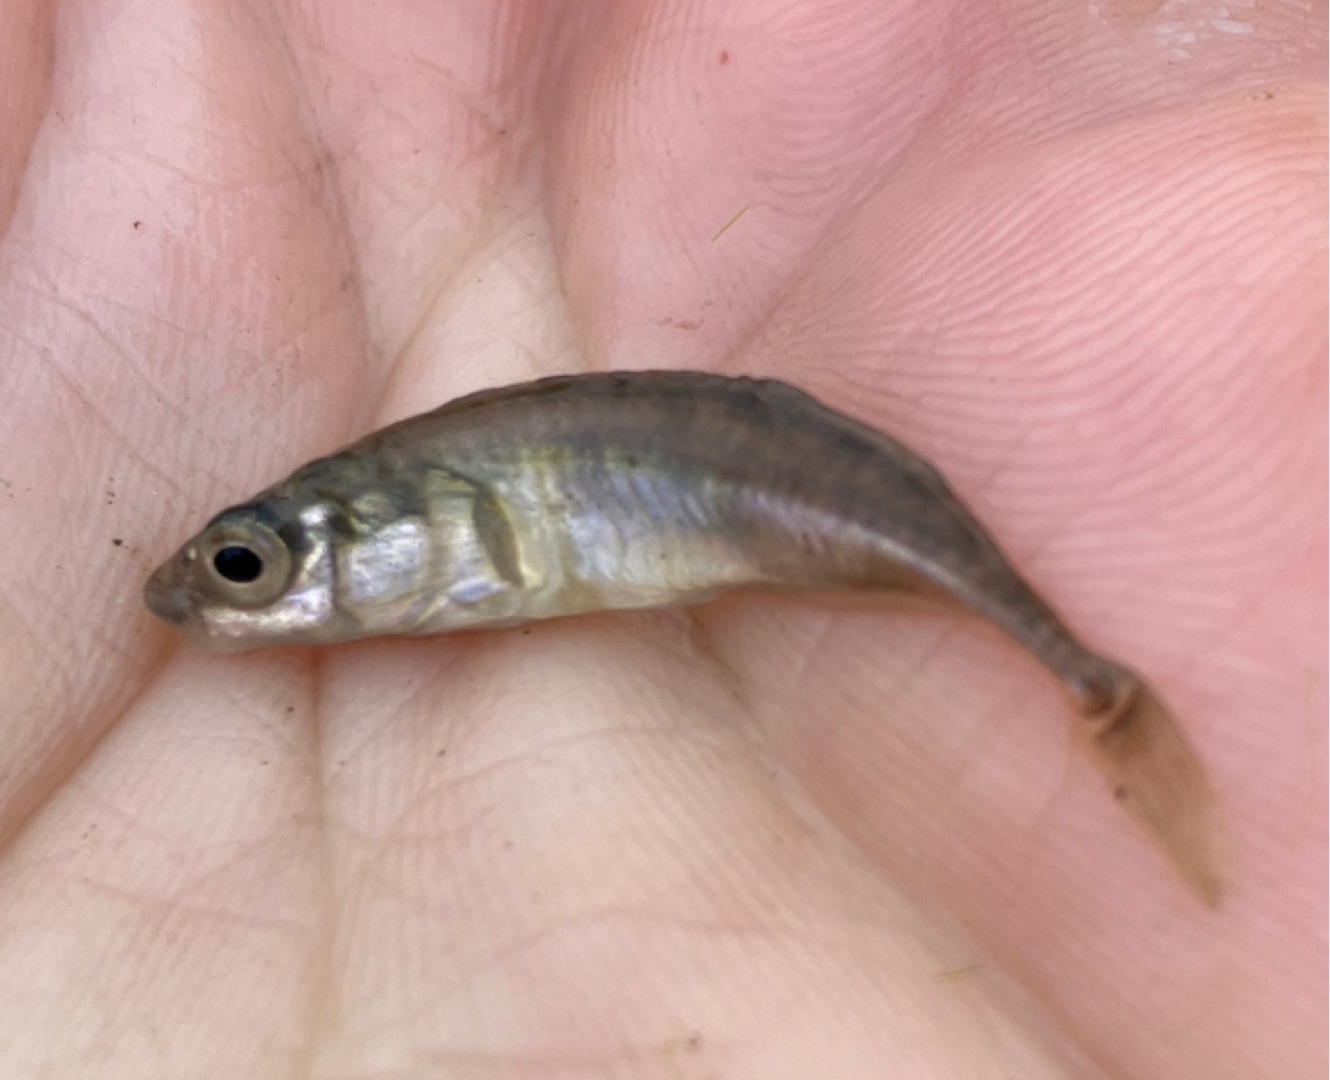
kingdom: Animalia
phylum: Chordata
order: Gasterosteiformes
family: Gasterosteidae
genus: Pungitius
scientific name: Pungitius pungitius
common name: Nipigget hundestejle
